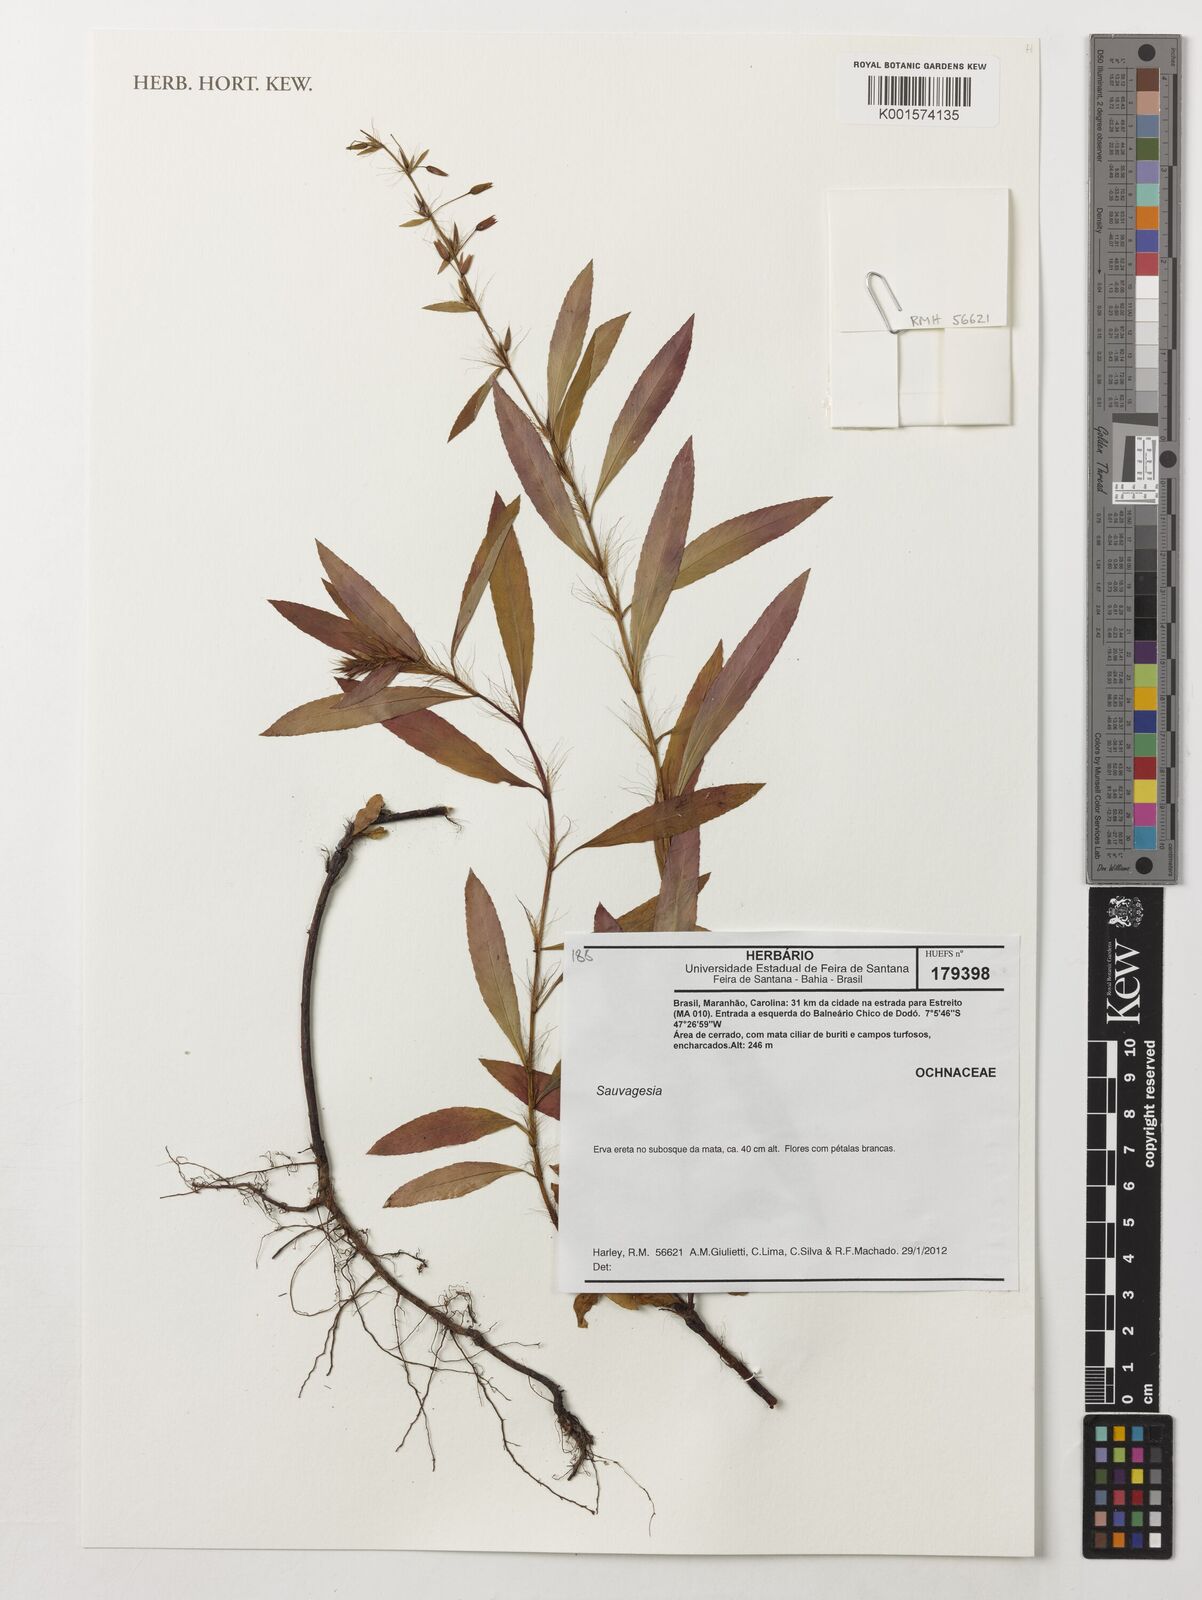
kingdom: Plantae
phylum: Tracheophyta
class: Magnoliopsida
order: Malpighiales
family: Ochnaceae
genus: Sauvagesia
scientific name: Sauvagesia
